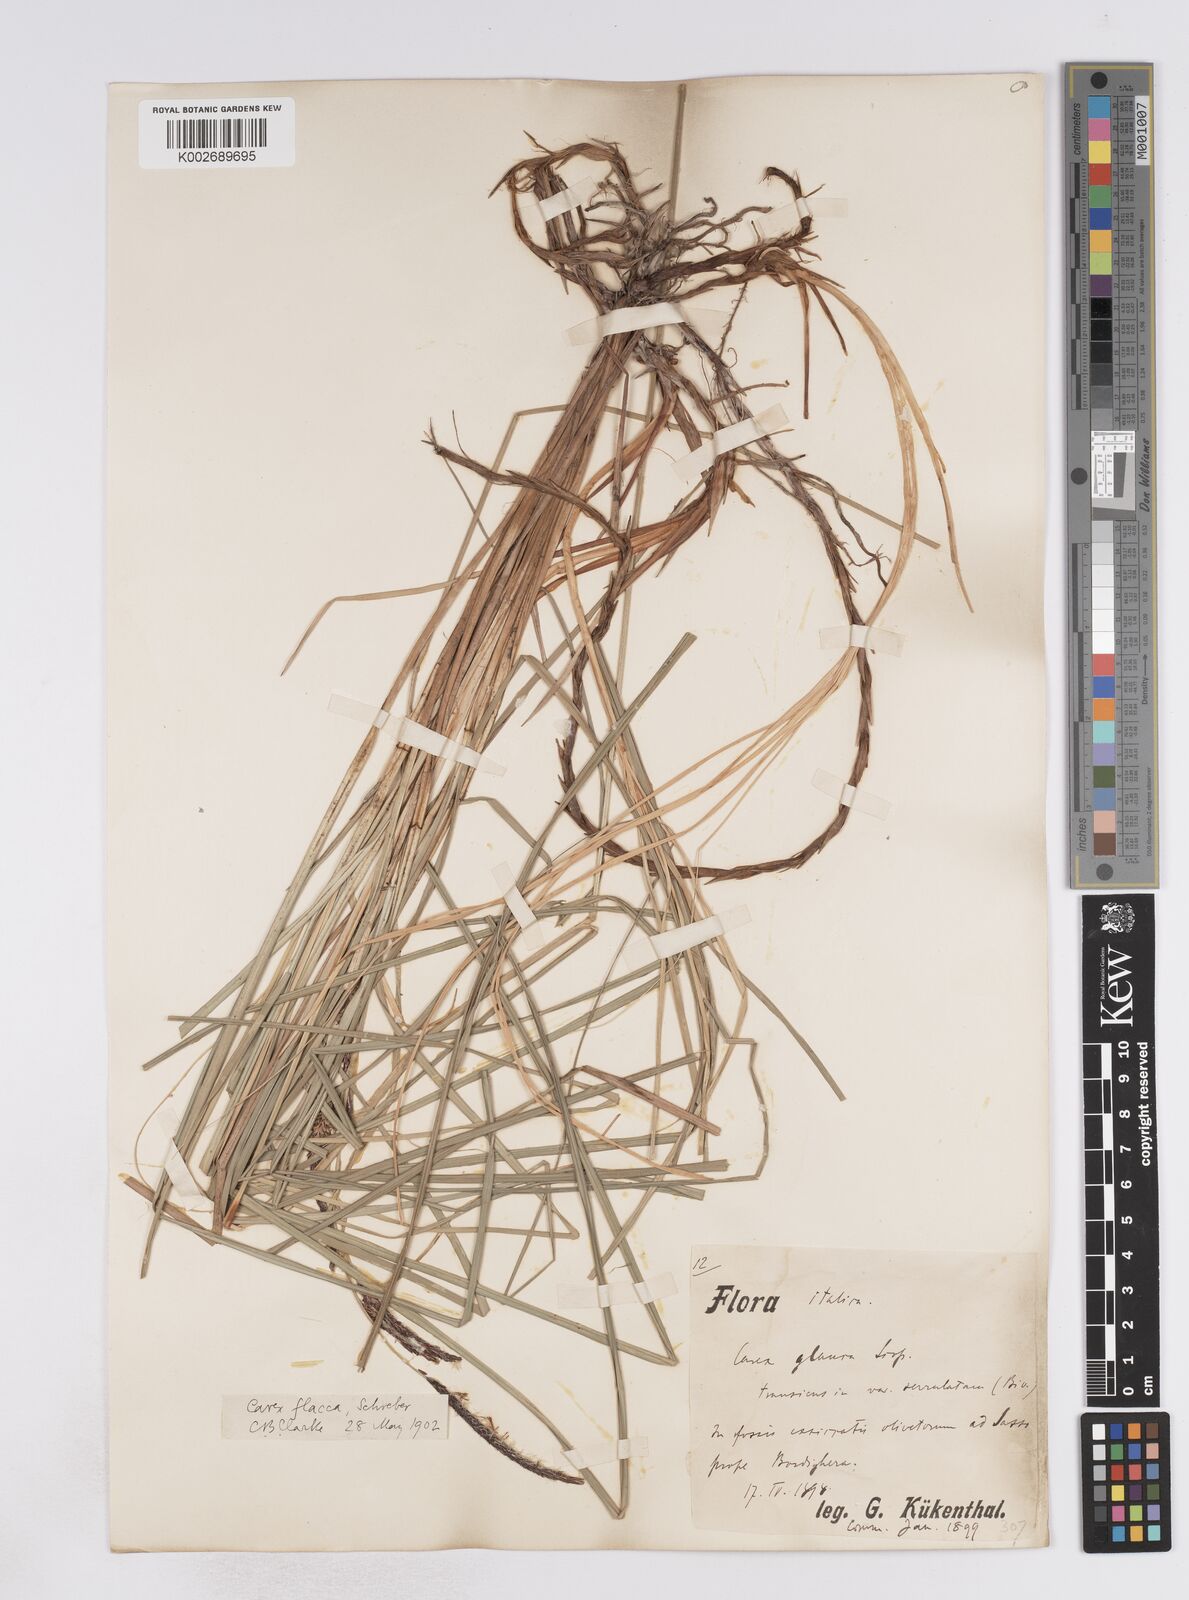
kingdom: Plantae
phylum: Tracheophyta
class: Liliopsida
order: Poales
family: Cyperaceae
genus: Carex
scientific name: Carex flacca
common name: Glaucous sedge
